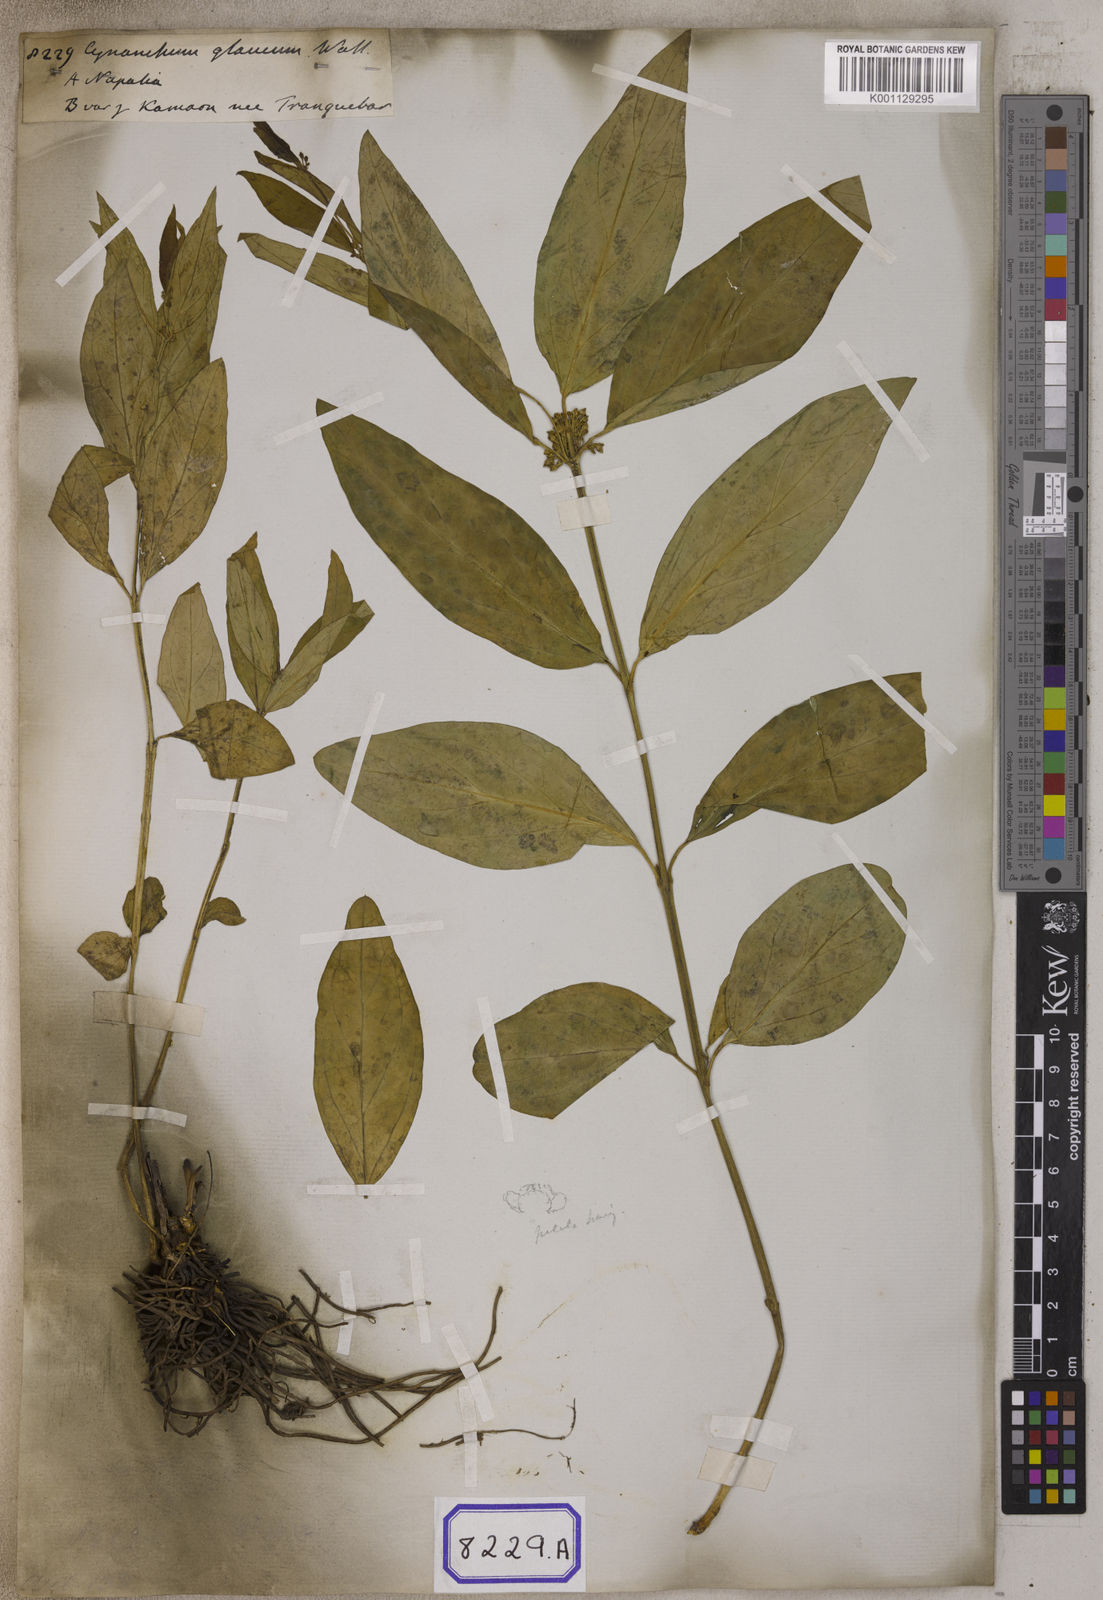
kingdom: Plantae
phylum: Tracheophyta
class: Magnoliopsida
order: Gentianales
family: Apocynaceae
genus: Cynanchum
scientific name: Cynanchum
